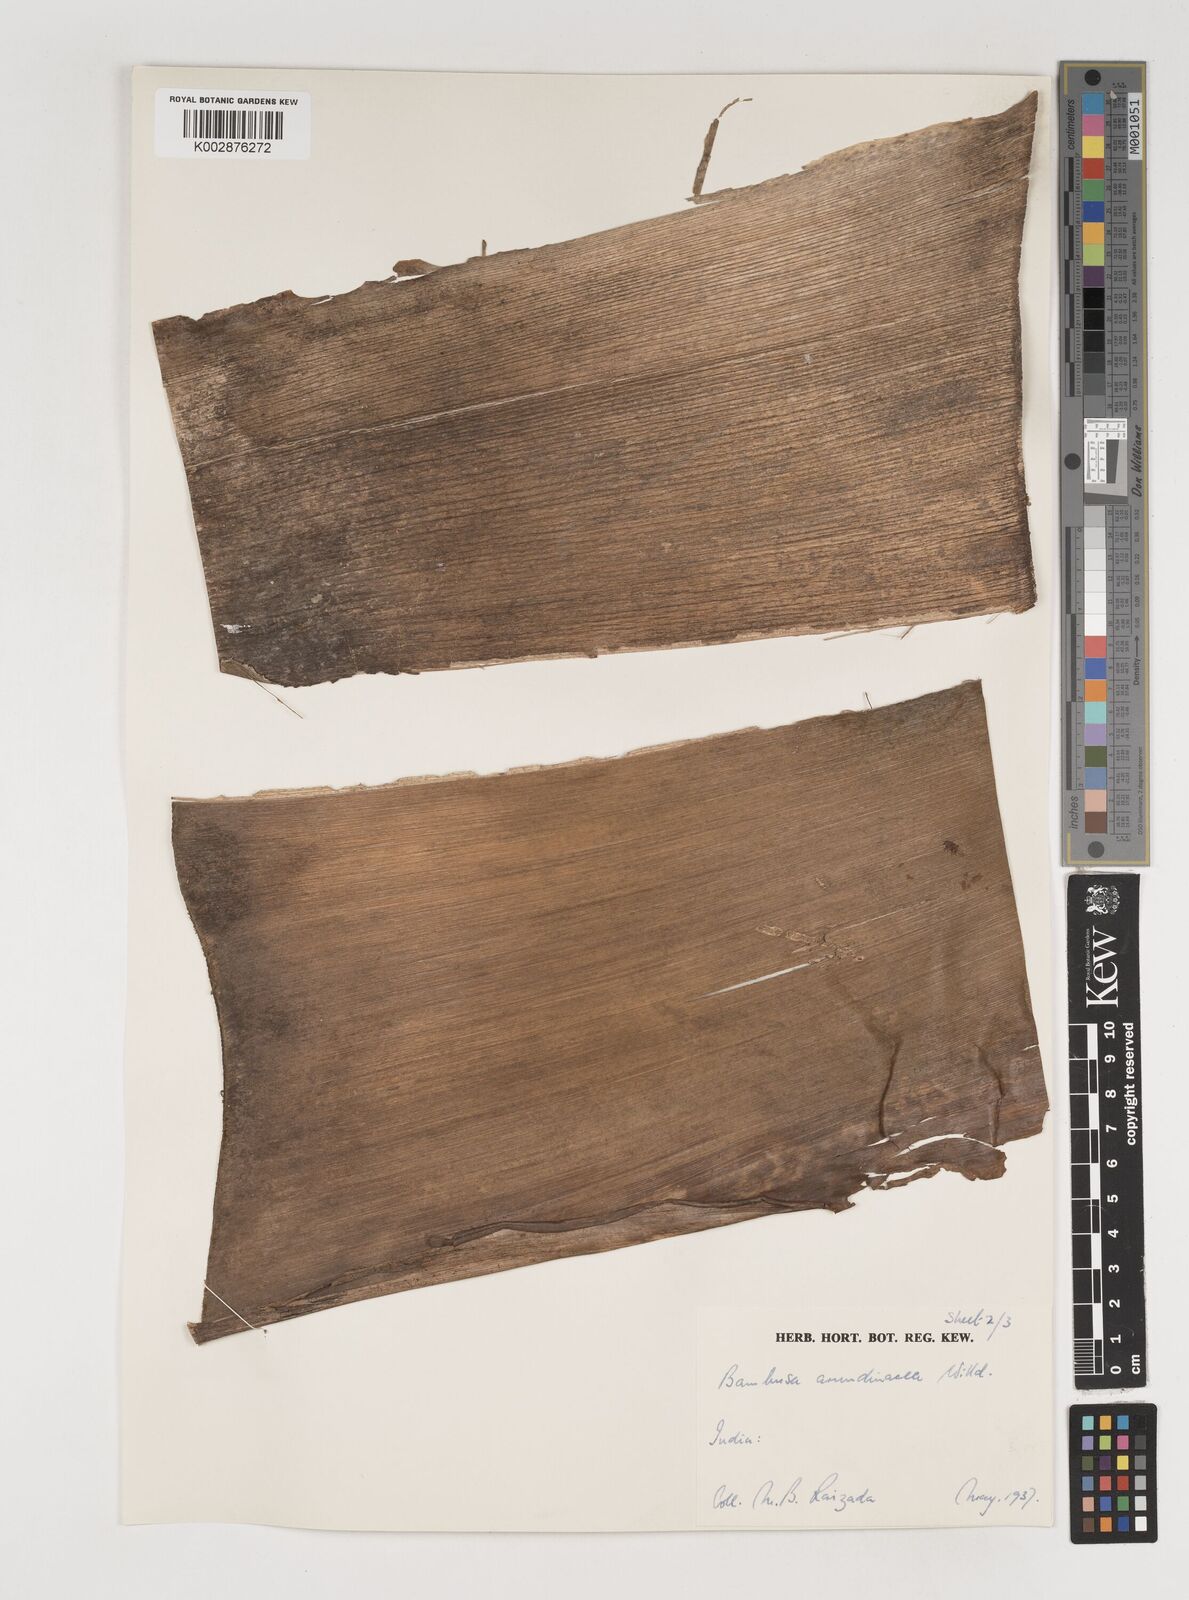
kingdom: Plantae
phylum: Tracheophyta
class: Liliopsida
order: Poales
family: Poaceae
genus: Bambusa
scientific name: Bambusa bambos
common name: Indian thorny bamboo
